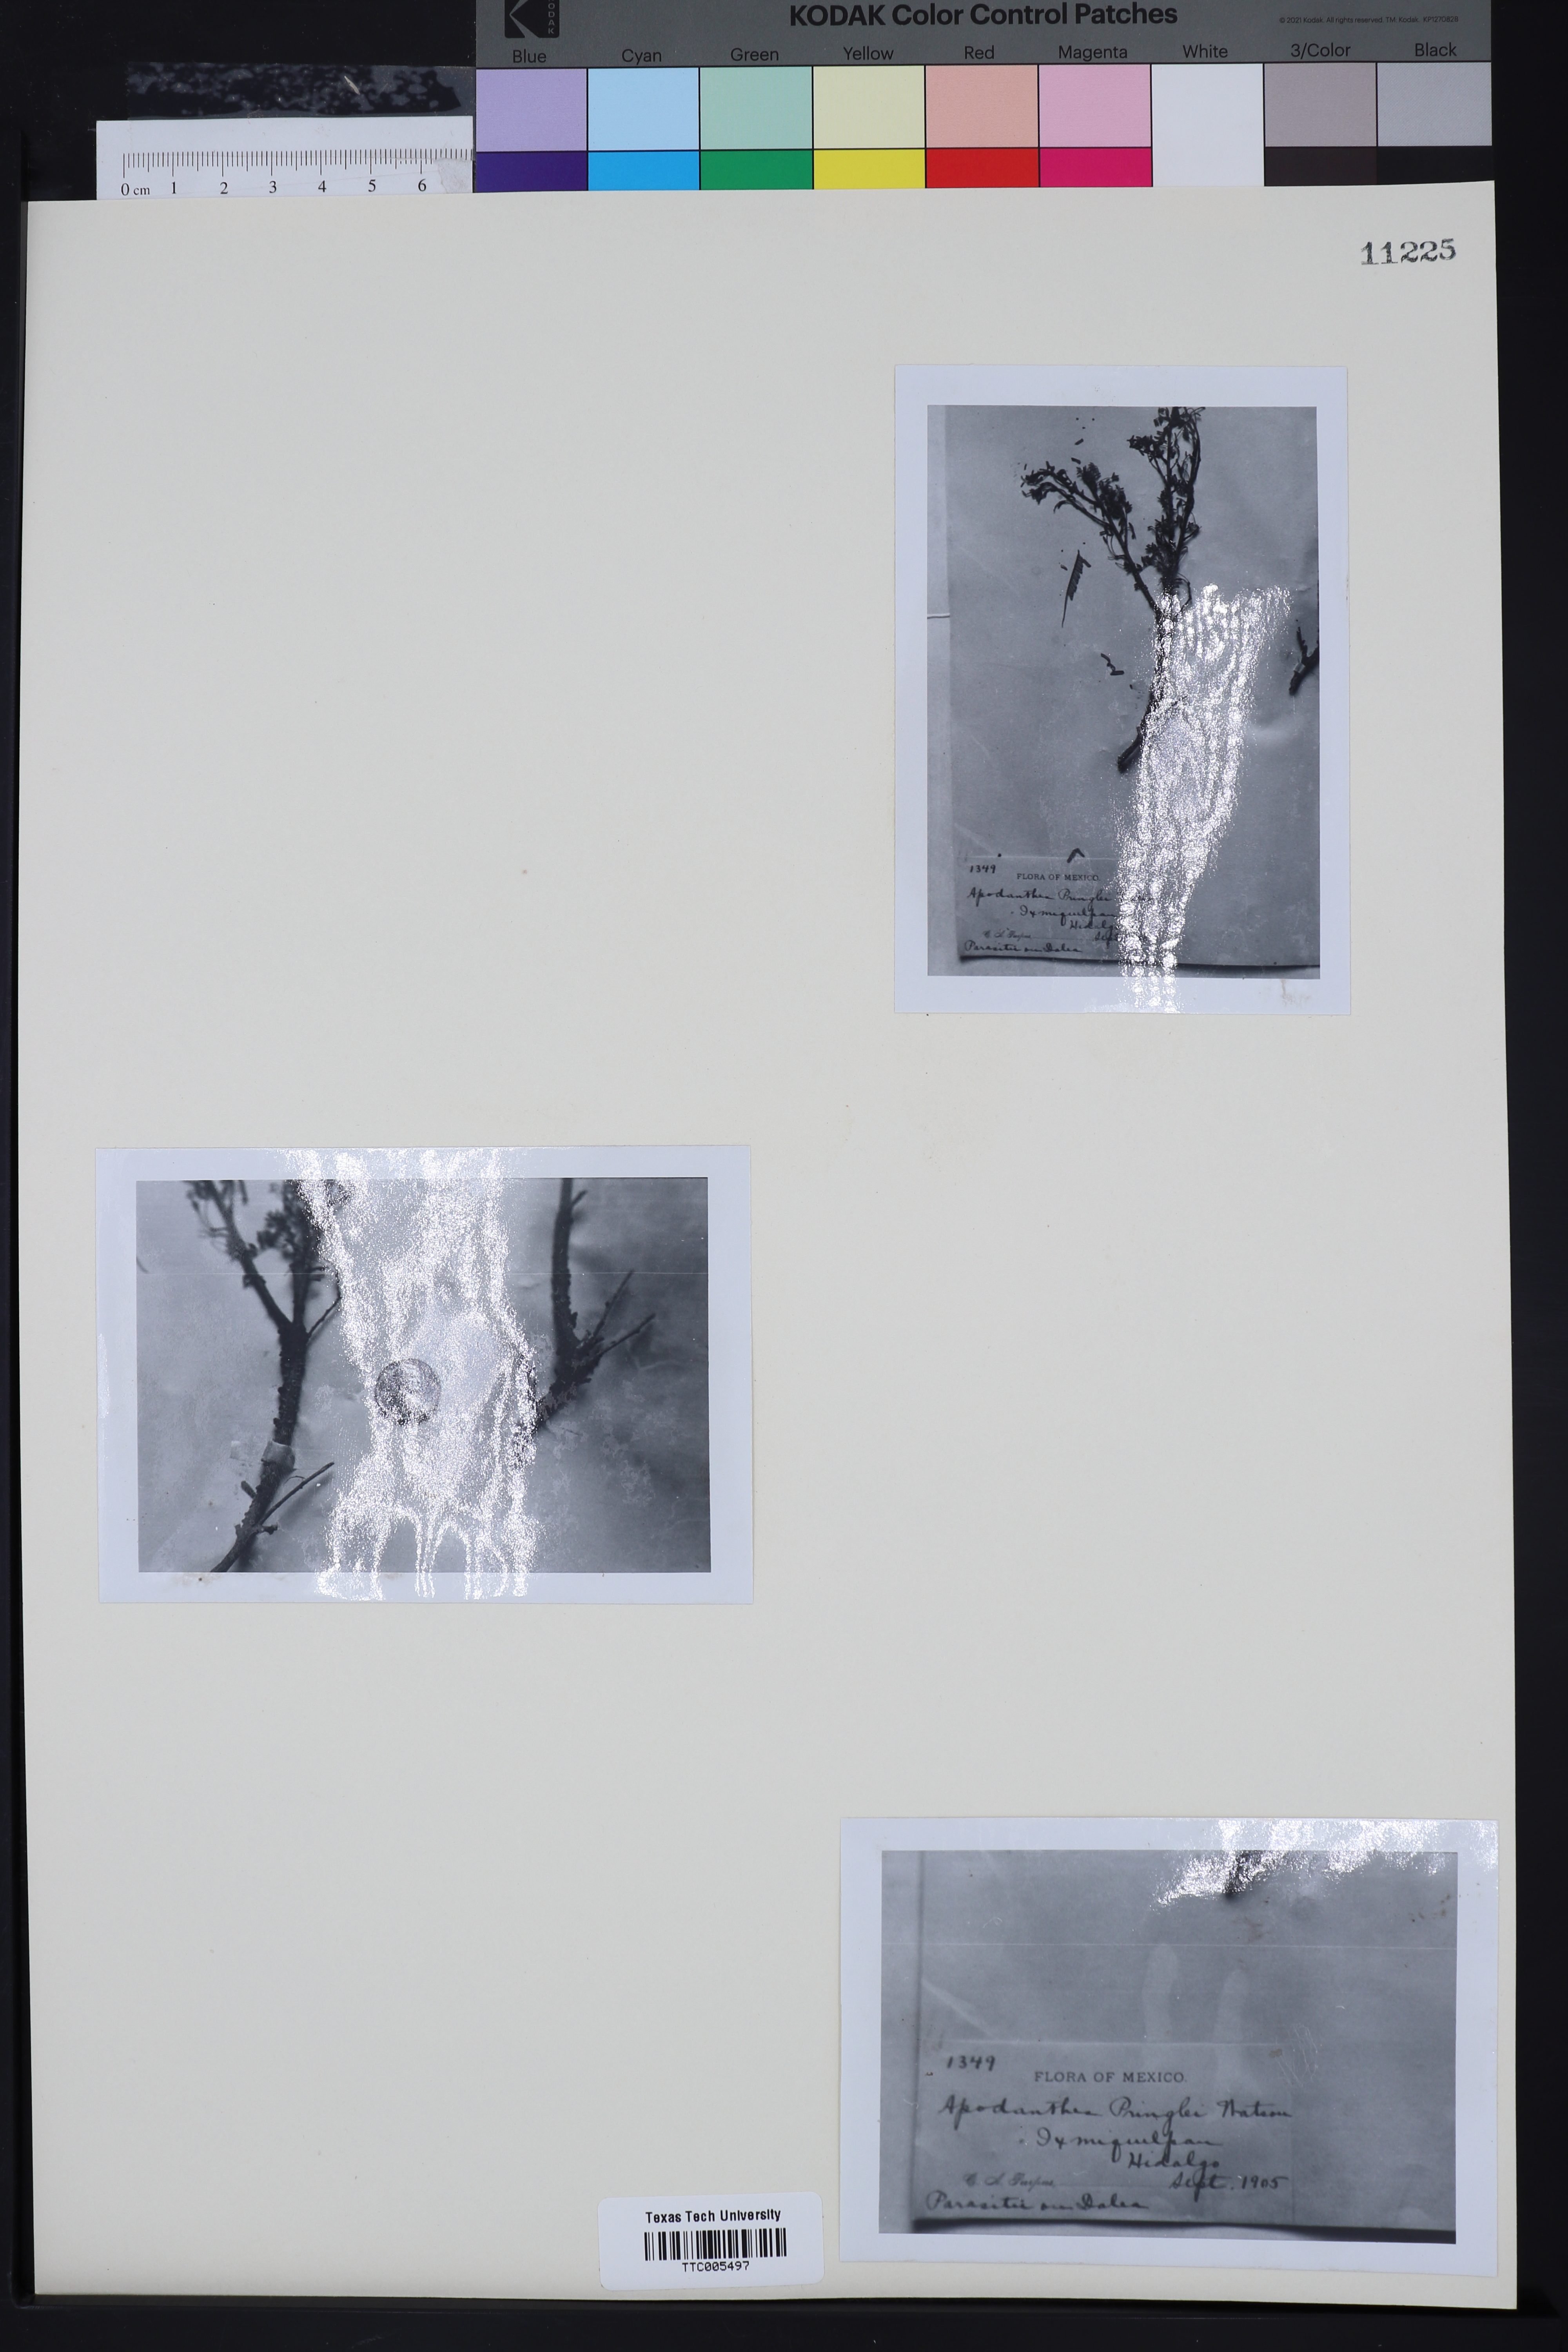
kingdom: Plantae
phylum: Tracheophyta
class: Magnoliopsida
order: Cucurbitales
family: Apodanthaceae
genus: Pilostyles
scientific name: Pilostyles thurberi
